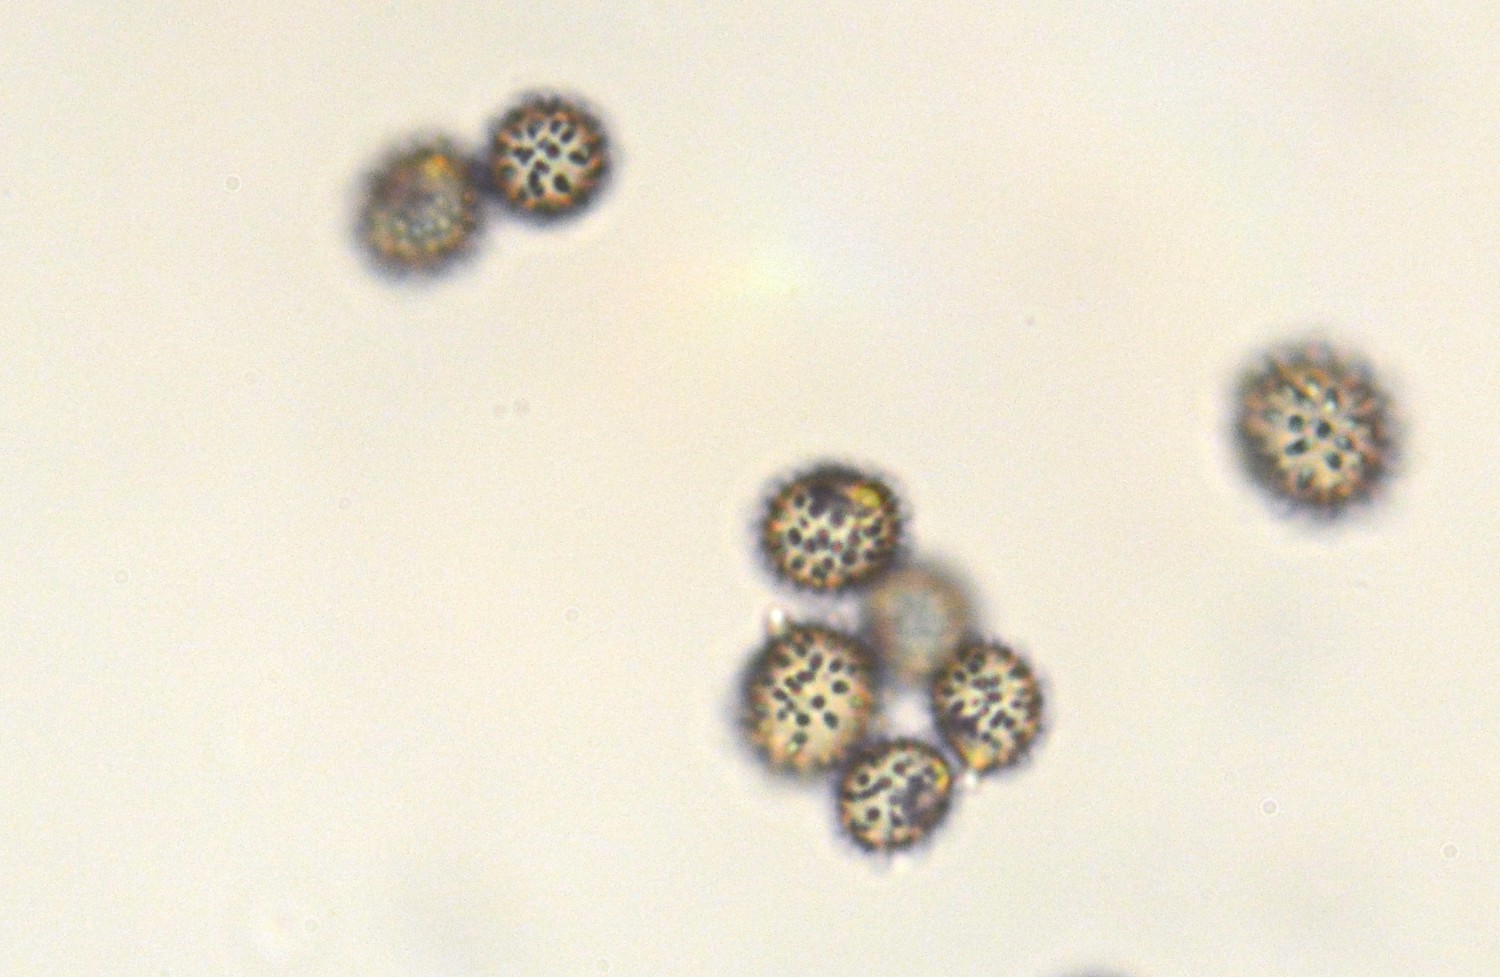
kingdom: Fungi
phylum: Basidiomycota
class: Agaricomycetes
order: Russulales
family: Russulaceae
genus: Russula
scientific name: Russula cuprea
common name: kanel-skørhat
